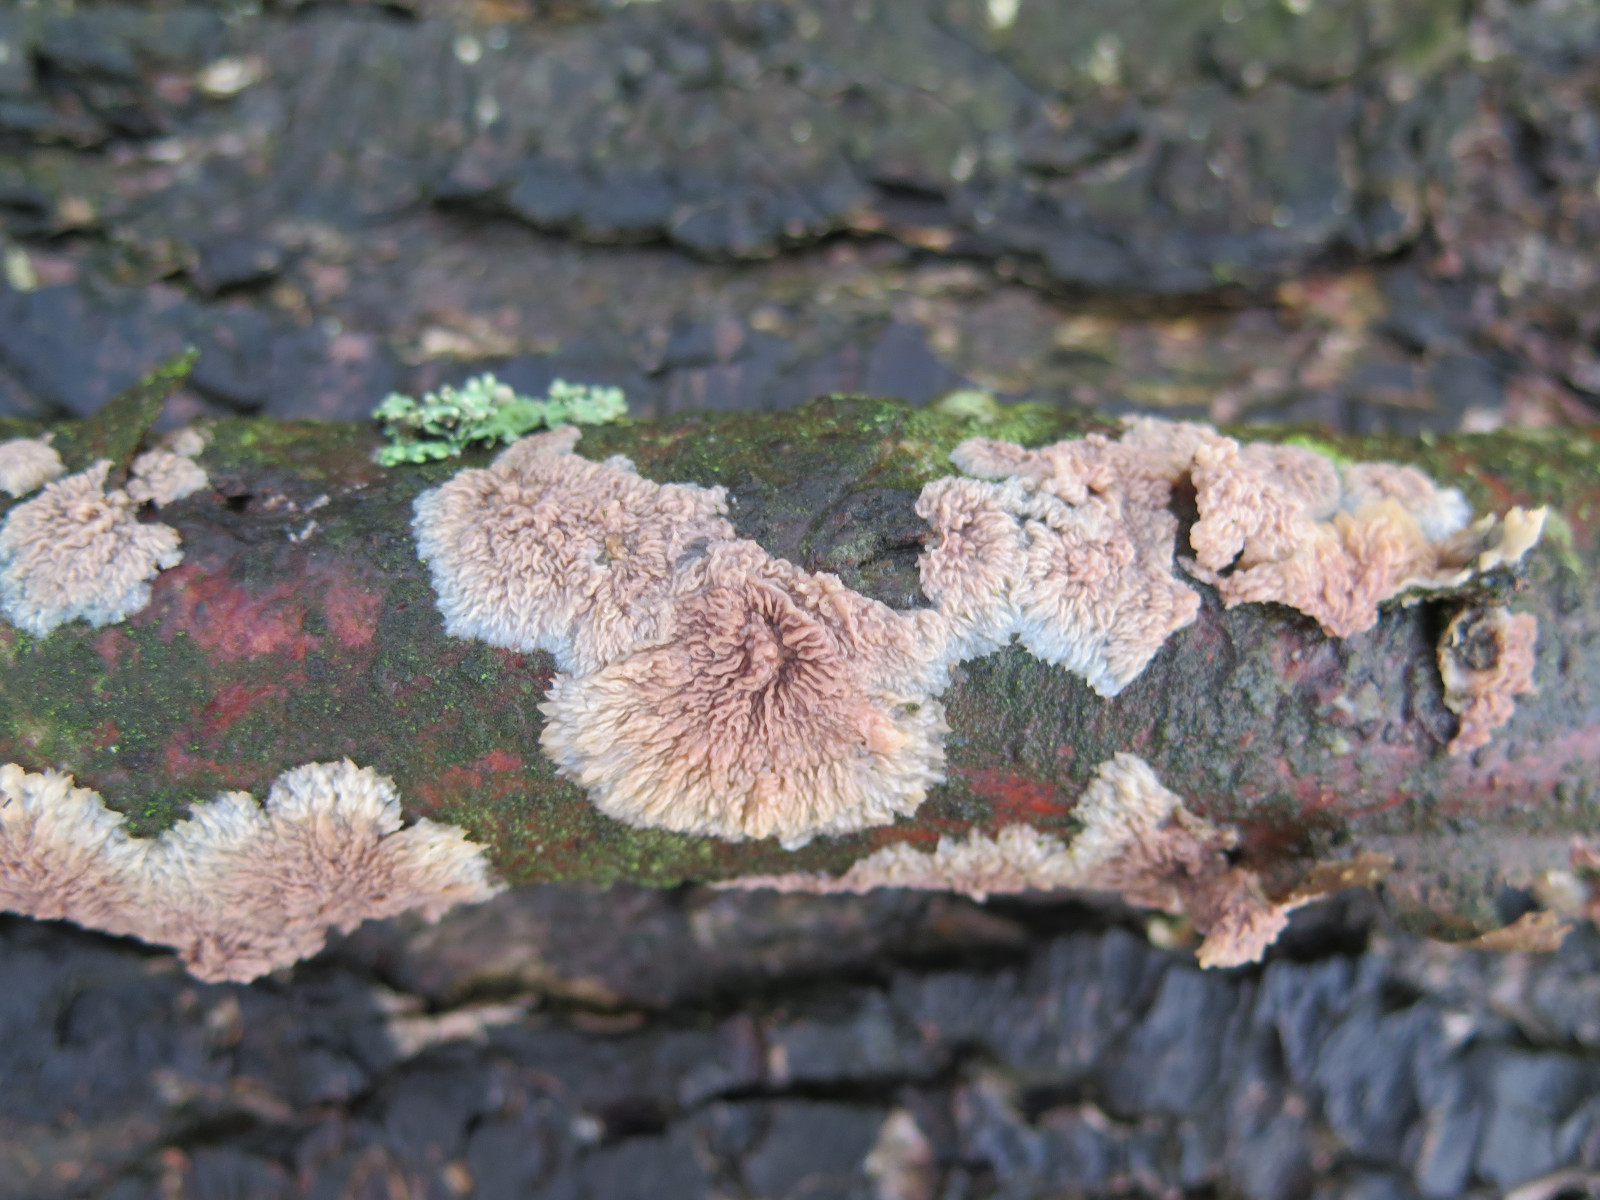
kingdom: Fungi
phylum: Basidiomycota
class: Agaricomycetes
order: Polyporales
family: Meruliaceae
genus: Phlebia
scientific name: Phlebia radiata
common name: stråle-åresvamp
